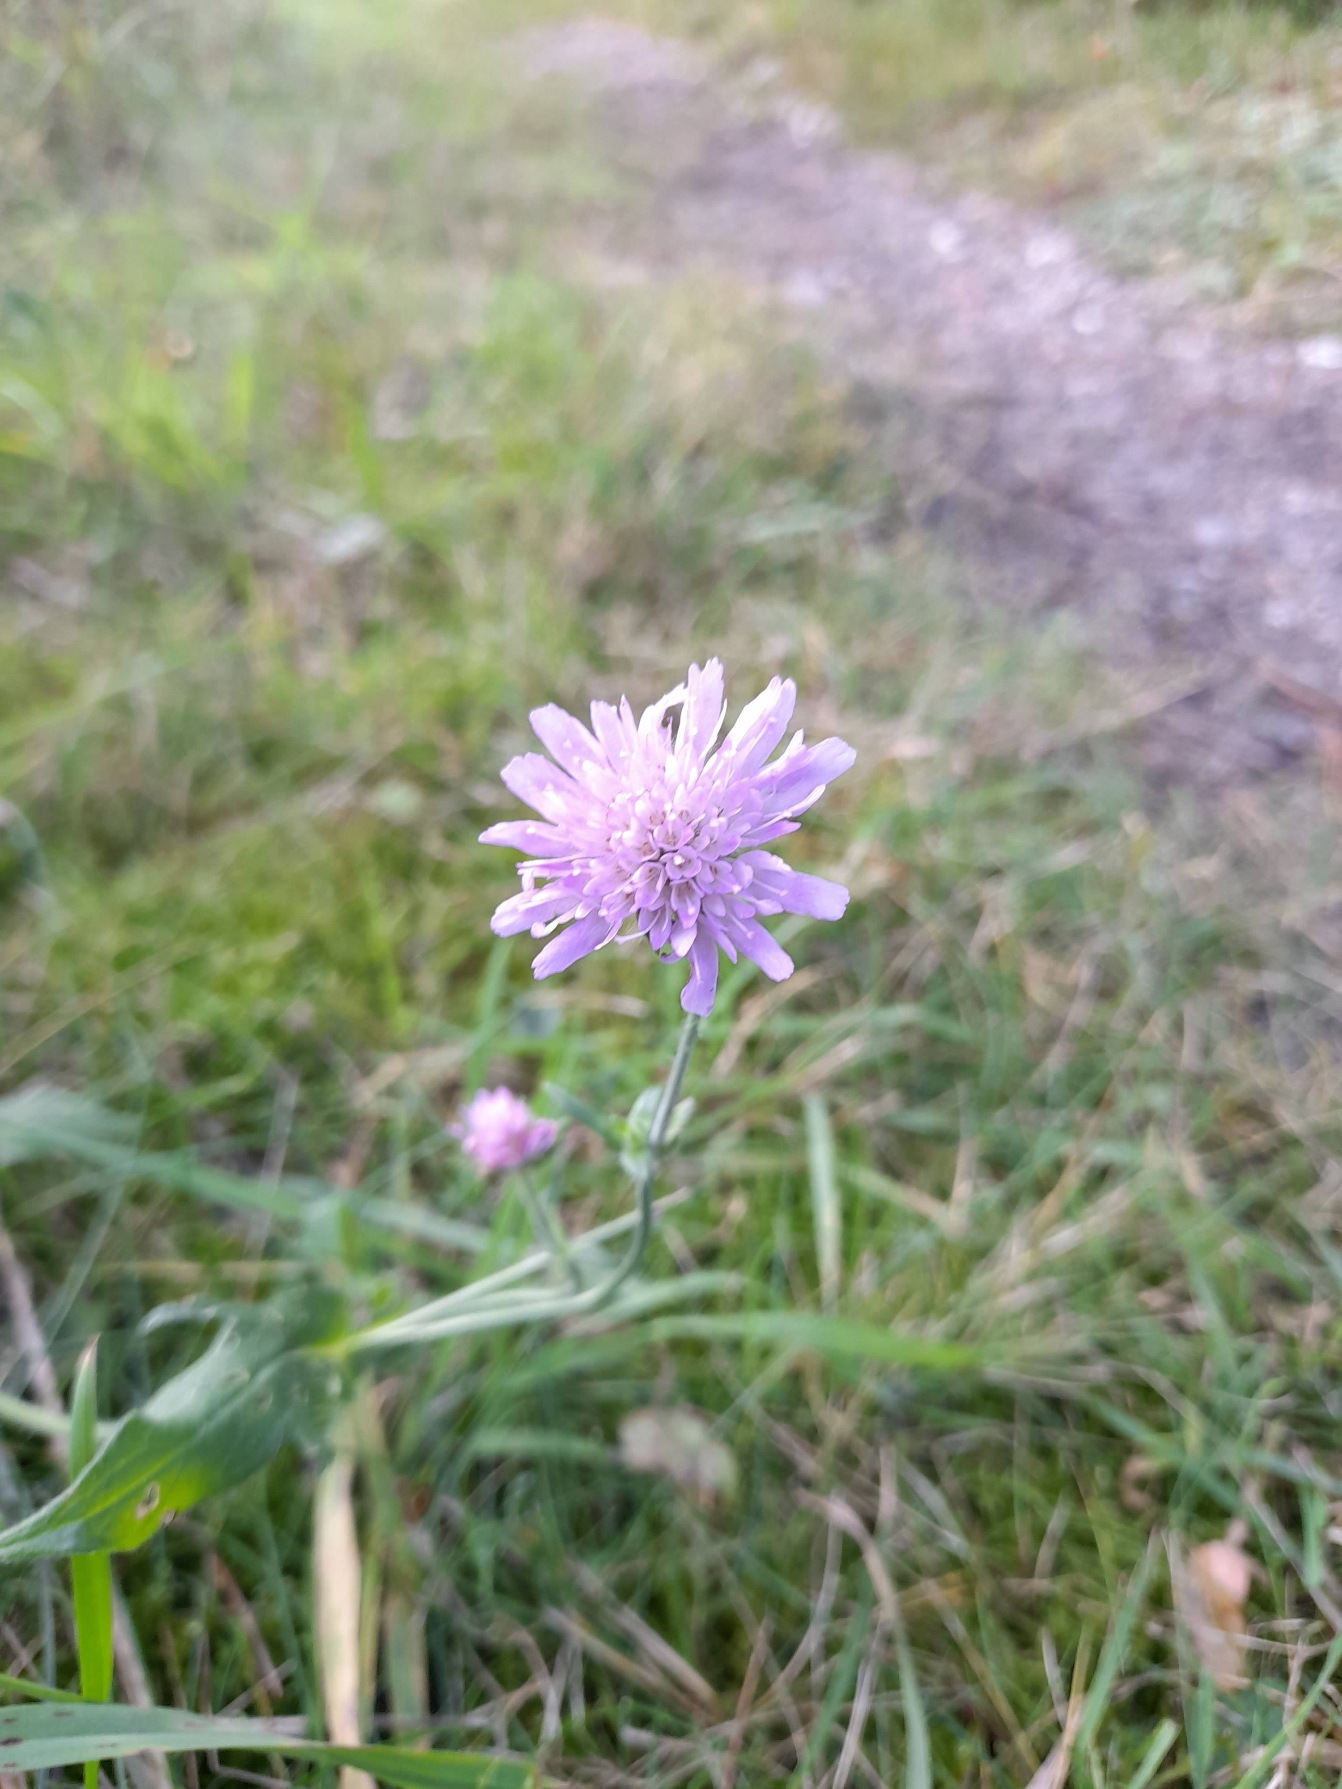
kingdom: Plantae
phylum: Tracheophyta
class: Magnoliopsida
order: Dipsacales
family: Caprifoliaceae
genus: Knautia
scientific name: Knautia arvensis
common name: Blåhat
